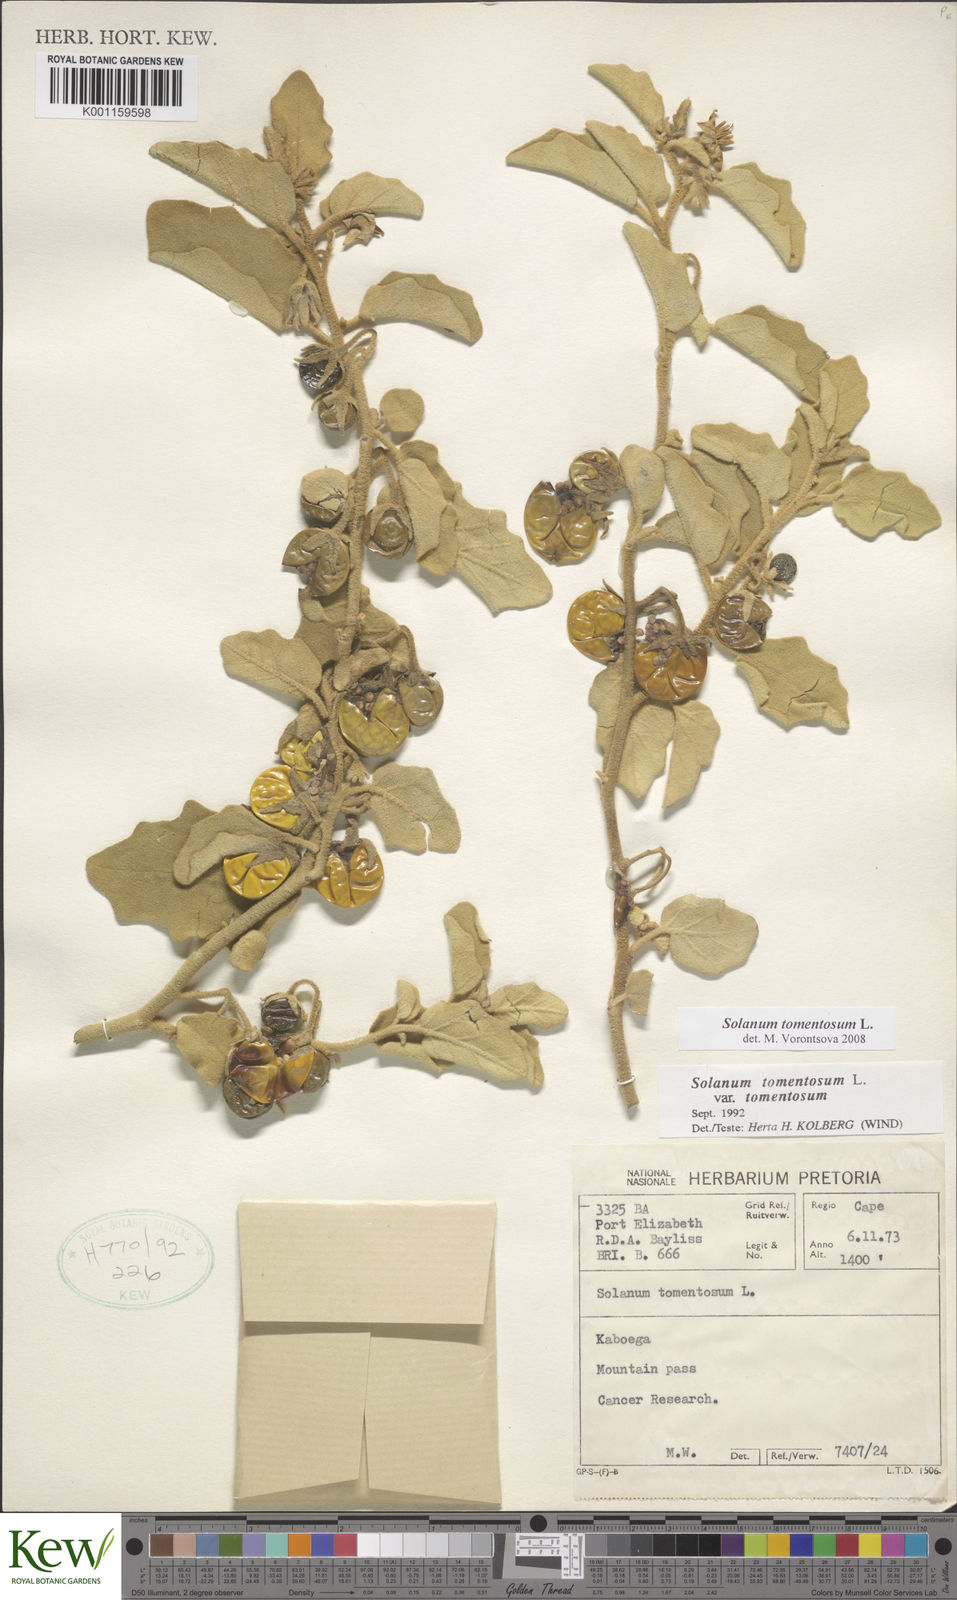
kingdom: Plantae
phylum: Tracheophyta
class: Magnoliopsida
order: Solanales
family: Solanaceae
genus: Solanum
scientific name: Solanum tomentosum
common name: Wild aubergine
